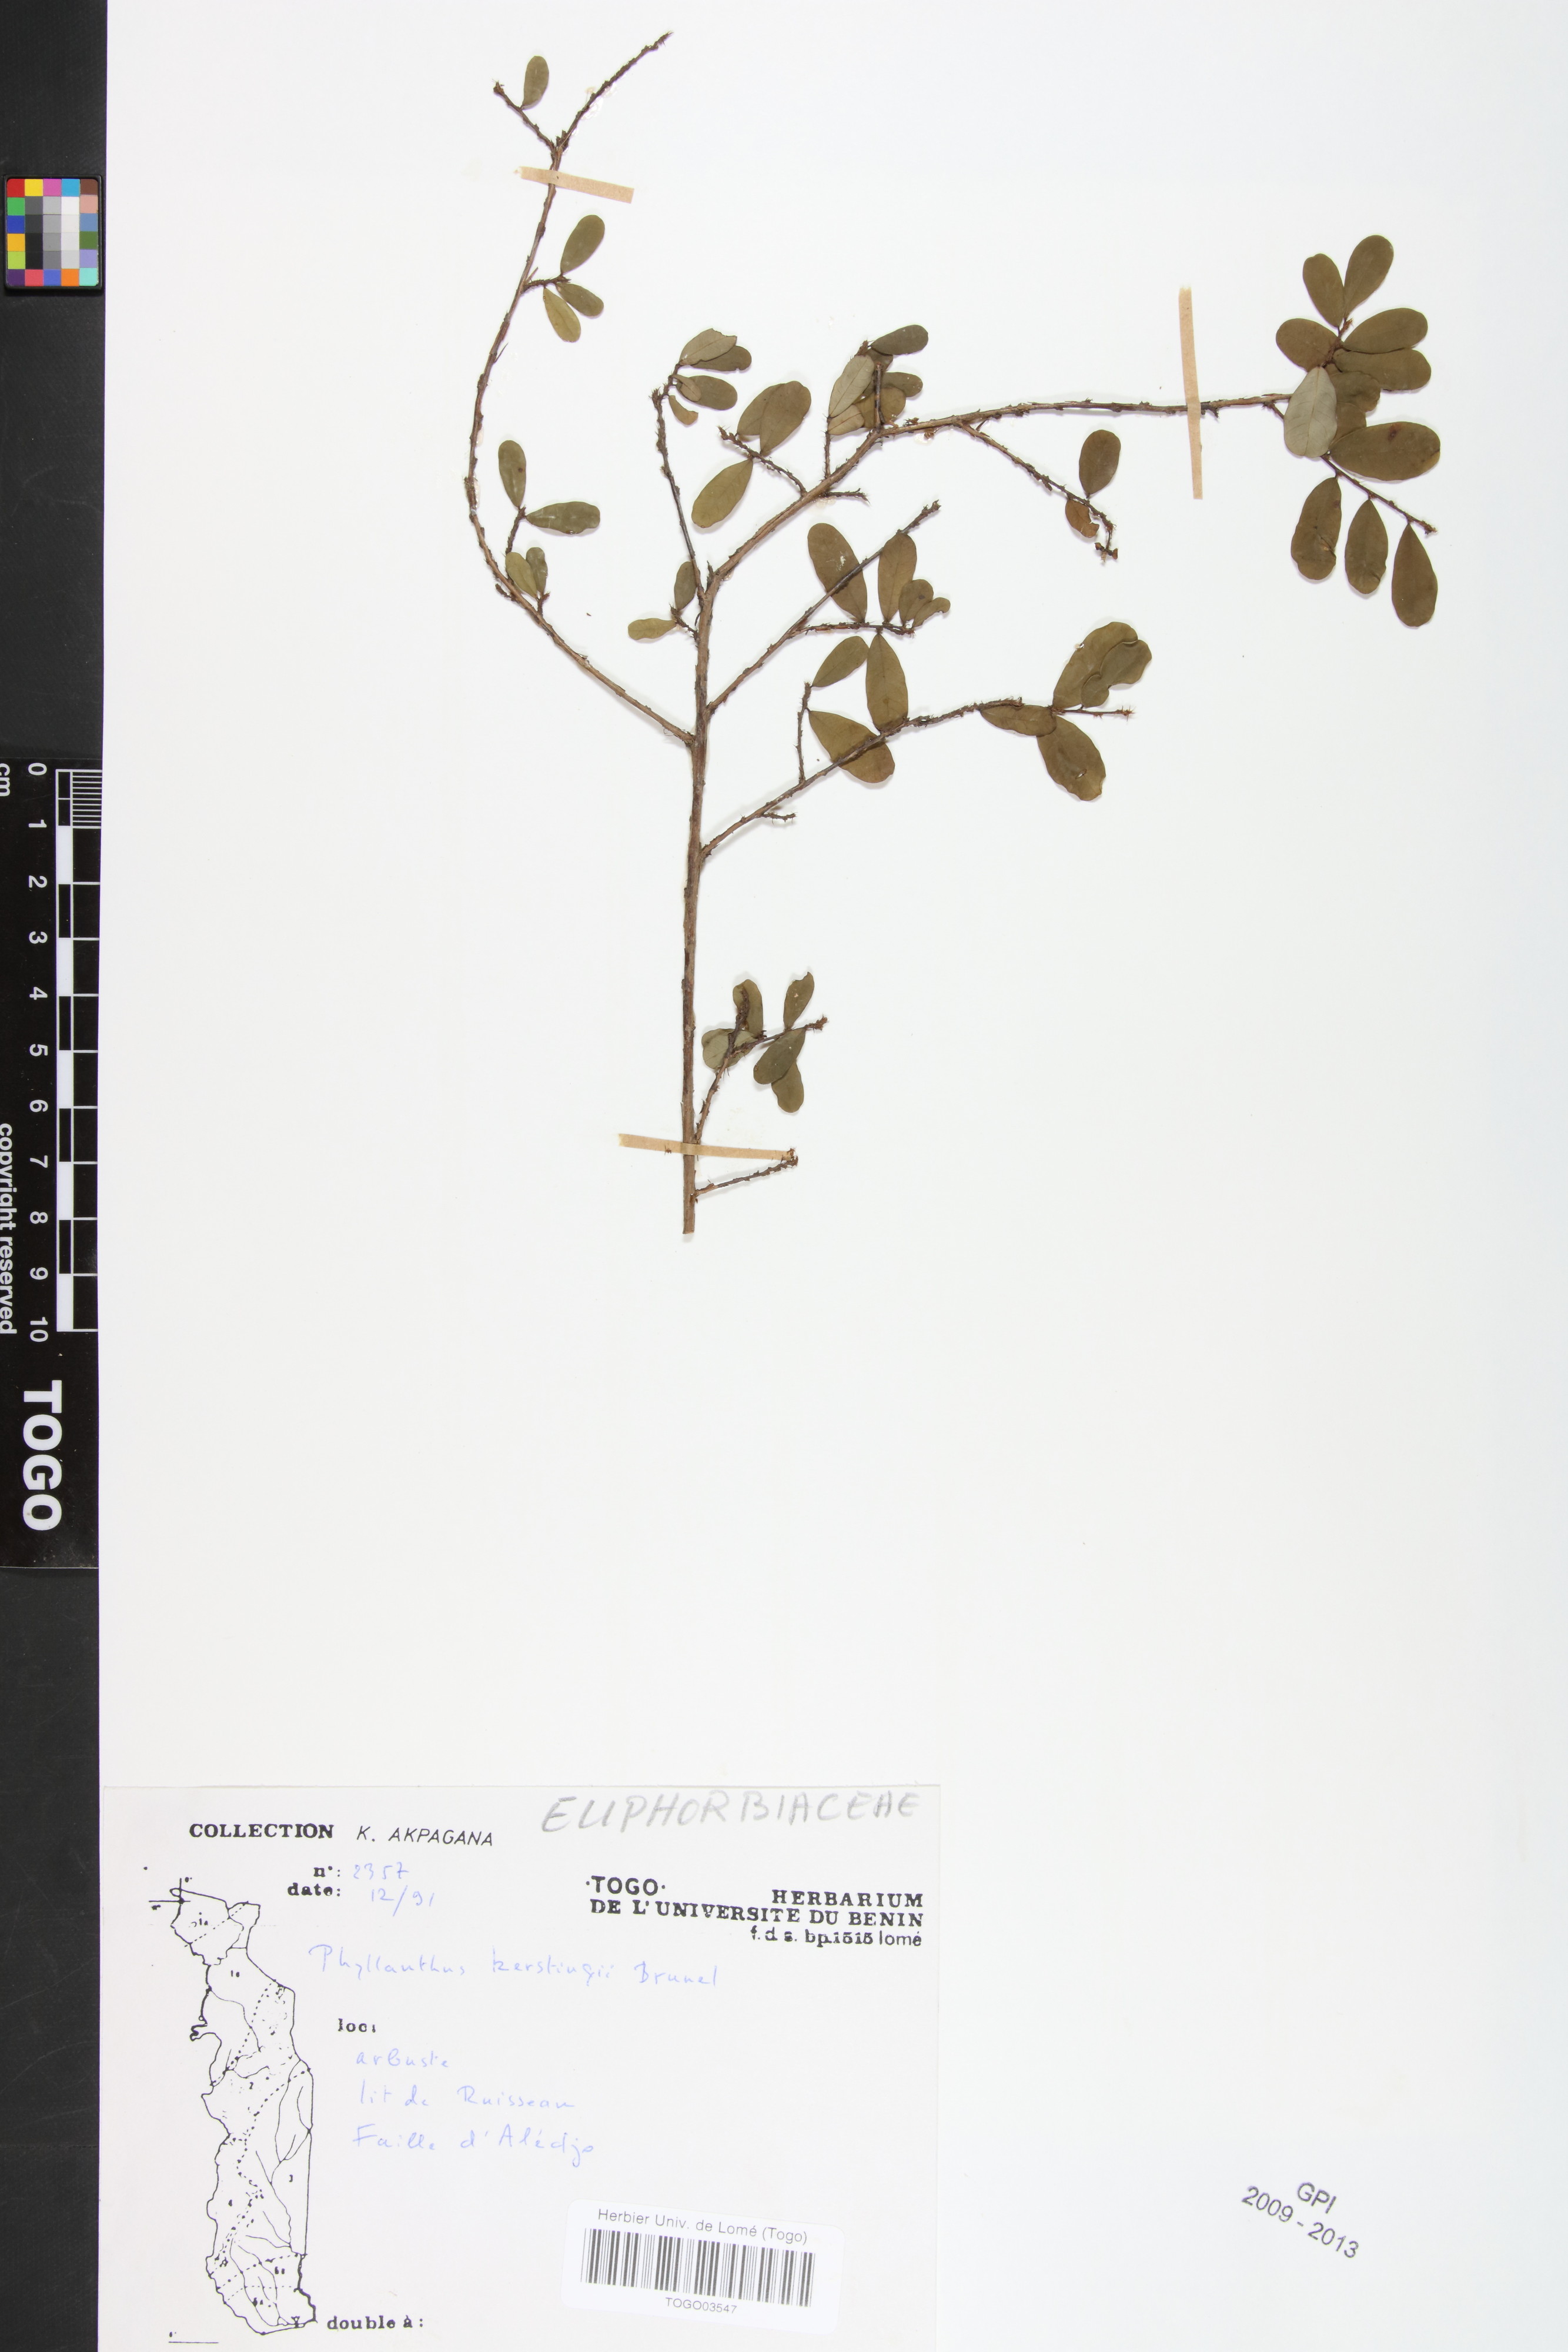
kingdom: Plantae
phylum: Tracheophyta
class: Magnoliopsida
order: Malpighiales
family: Phyllanthaceae
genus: Phyllanthus
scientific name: Phyllanthus kerstingii
